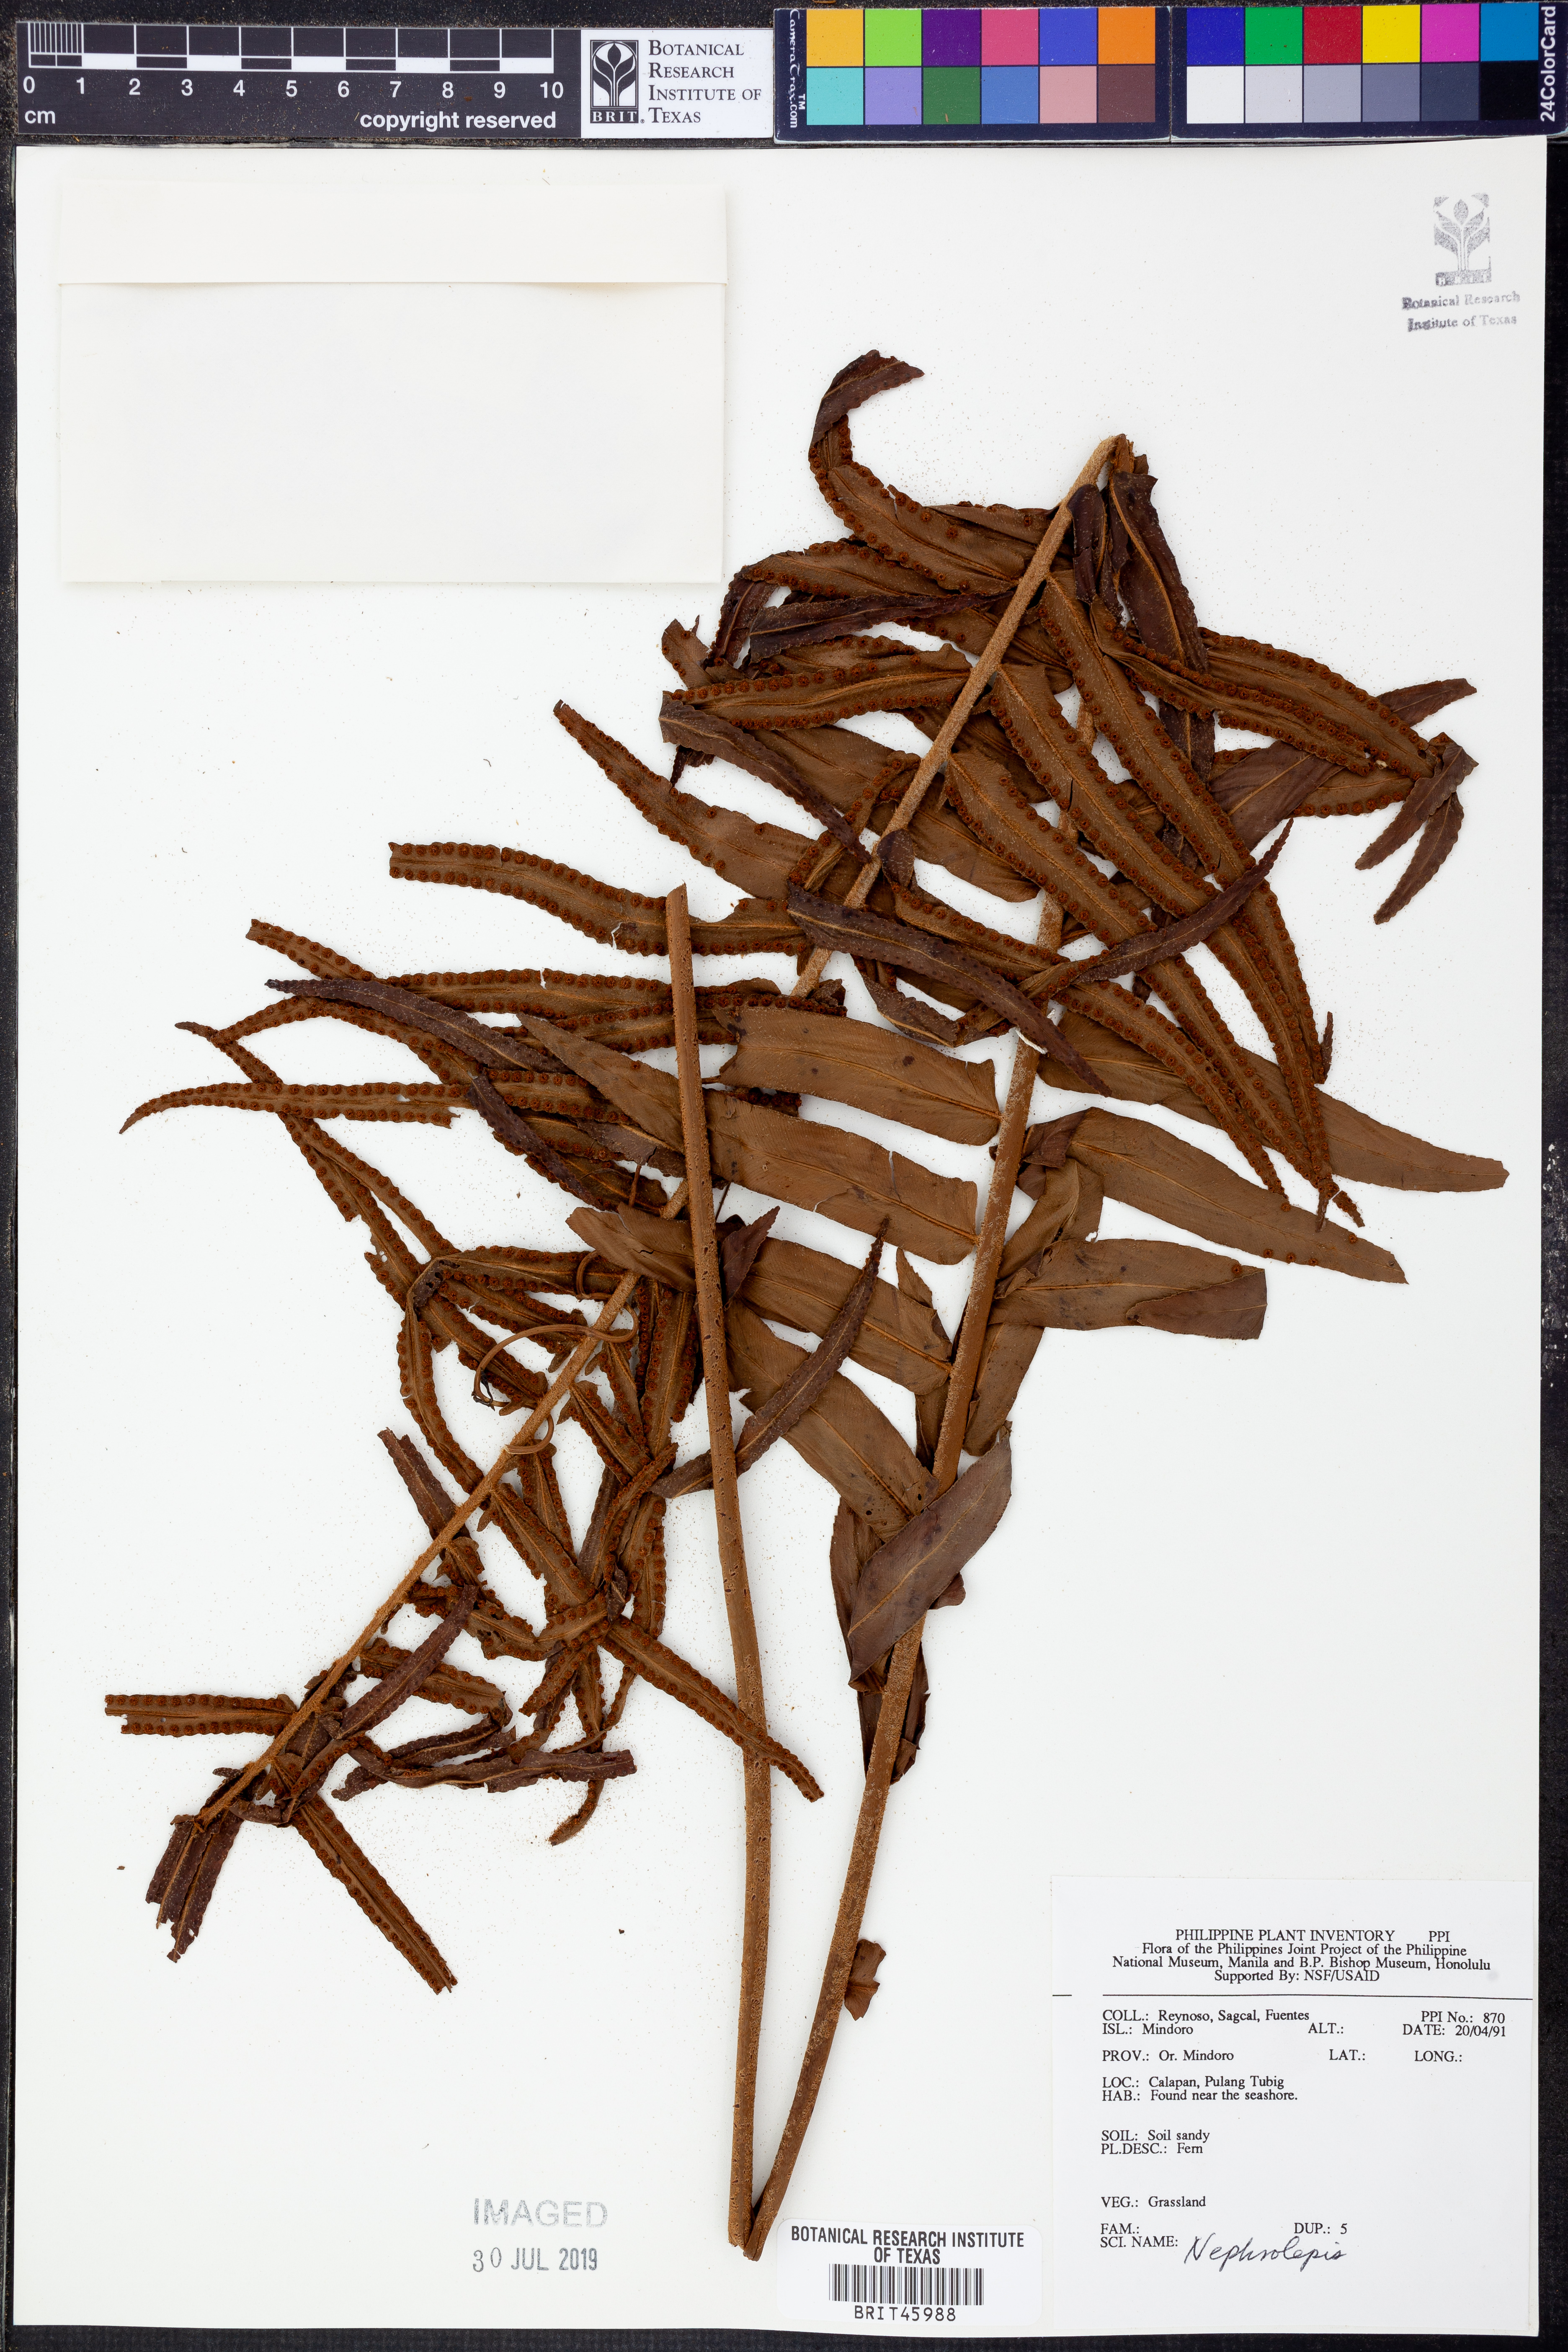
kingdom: Plantae
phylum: Tracheophyta
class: Polypodiopsida
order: Polypodiales
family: Nephrolepidaceae
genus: Nephrolepis
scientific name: Nephrolepis
